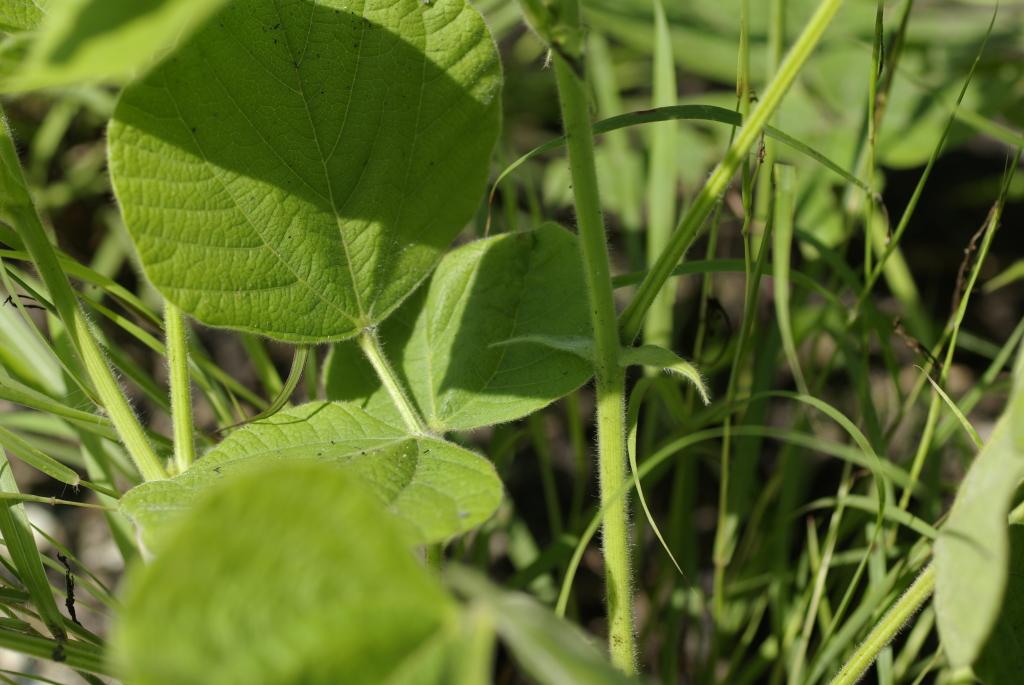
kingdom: Plantae
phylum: Tracheophyta
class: Magnoliopsida
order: Fabales
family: Fabaceae
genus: Rhynchosia
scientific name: Rhynchosia rothii
